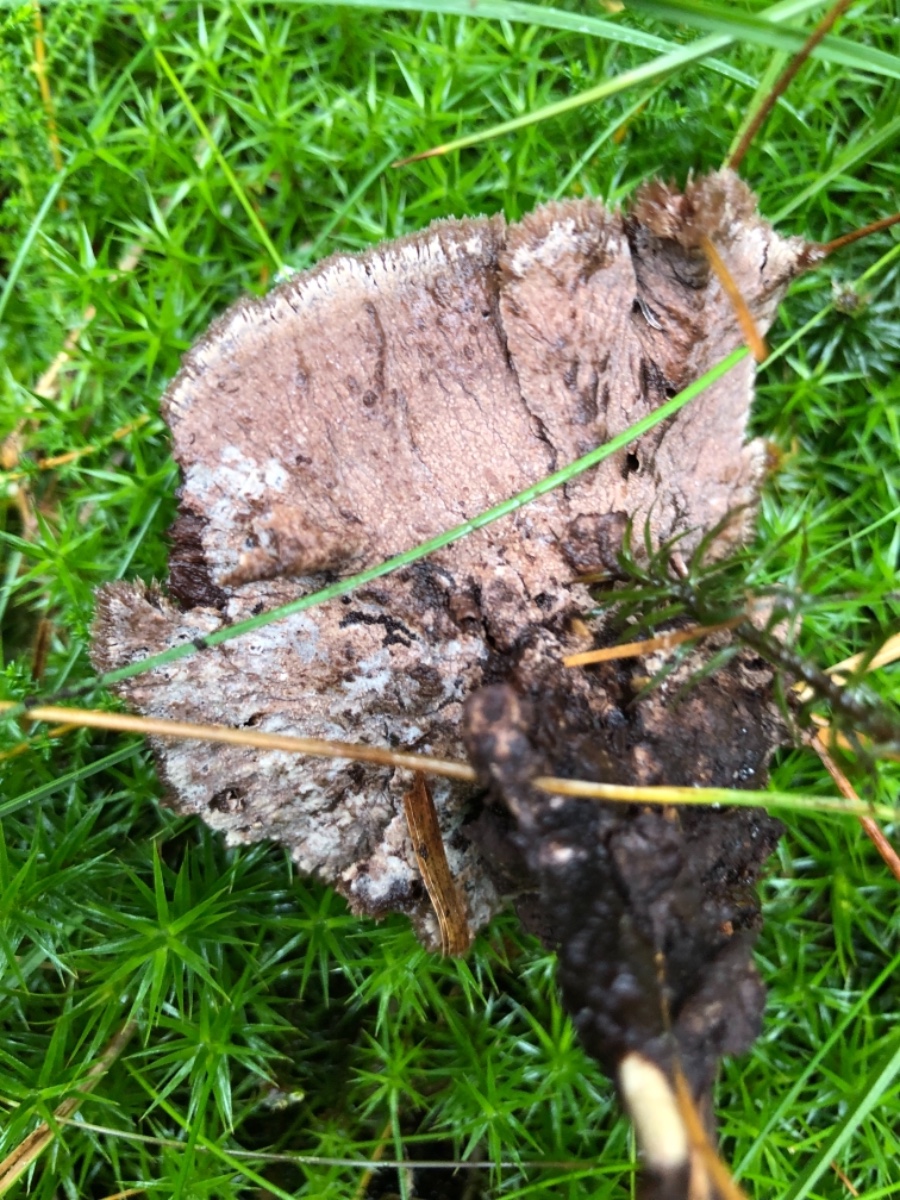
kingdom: Fungi
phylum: Basidiomycota
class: Agaricomycetes
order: Thelephorales
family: Thelephoraceae
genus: Thelephora
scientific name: Thelephora terrestris
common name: fliget frynsesvamp
